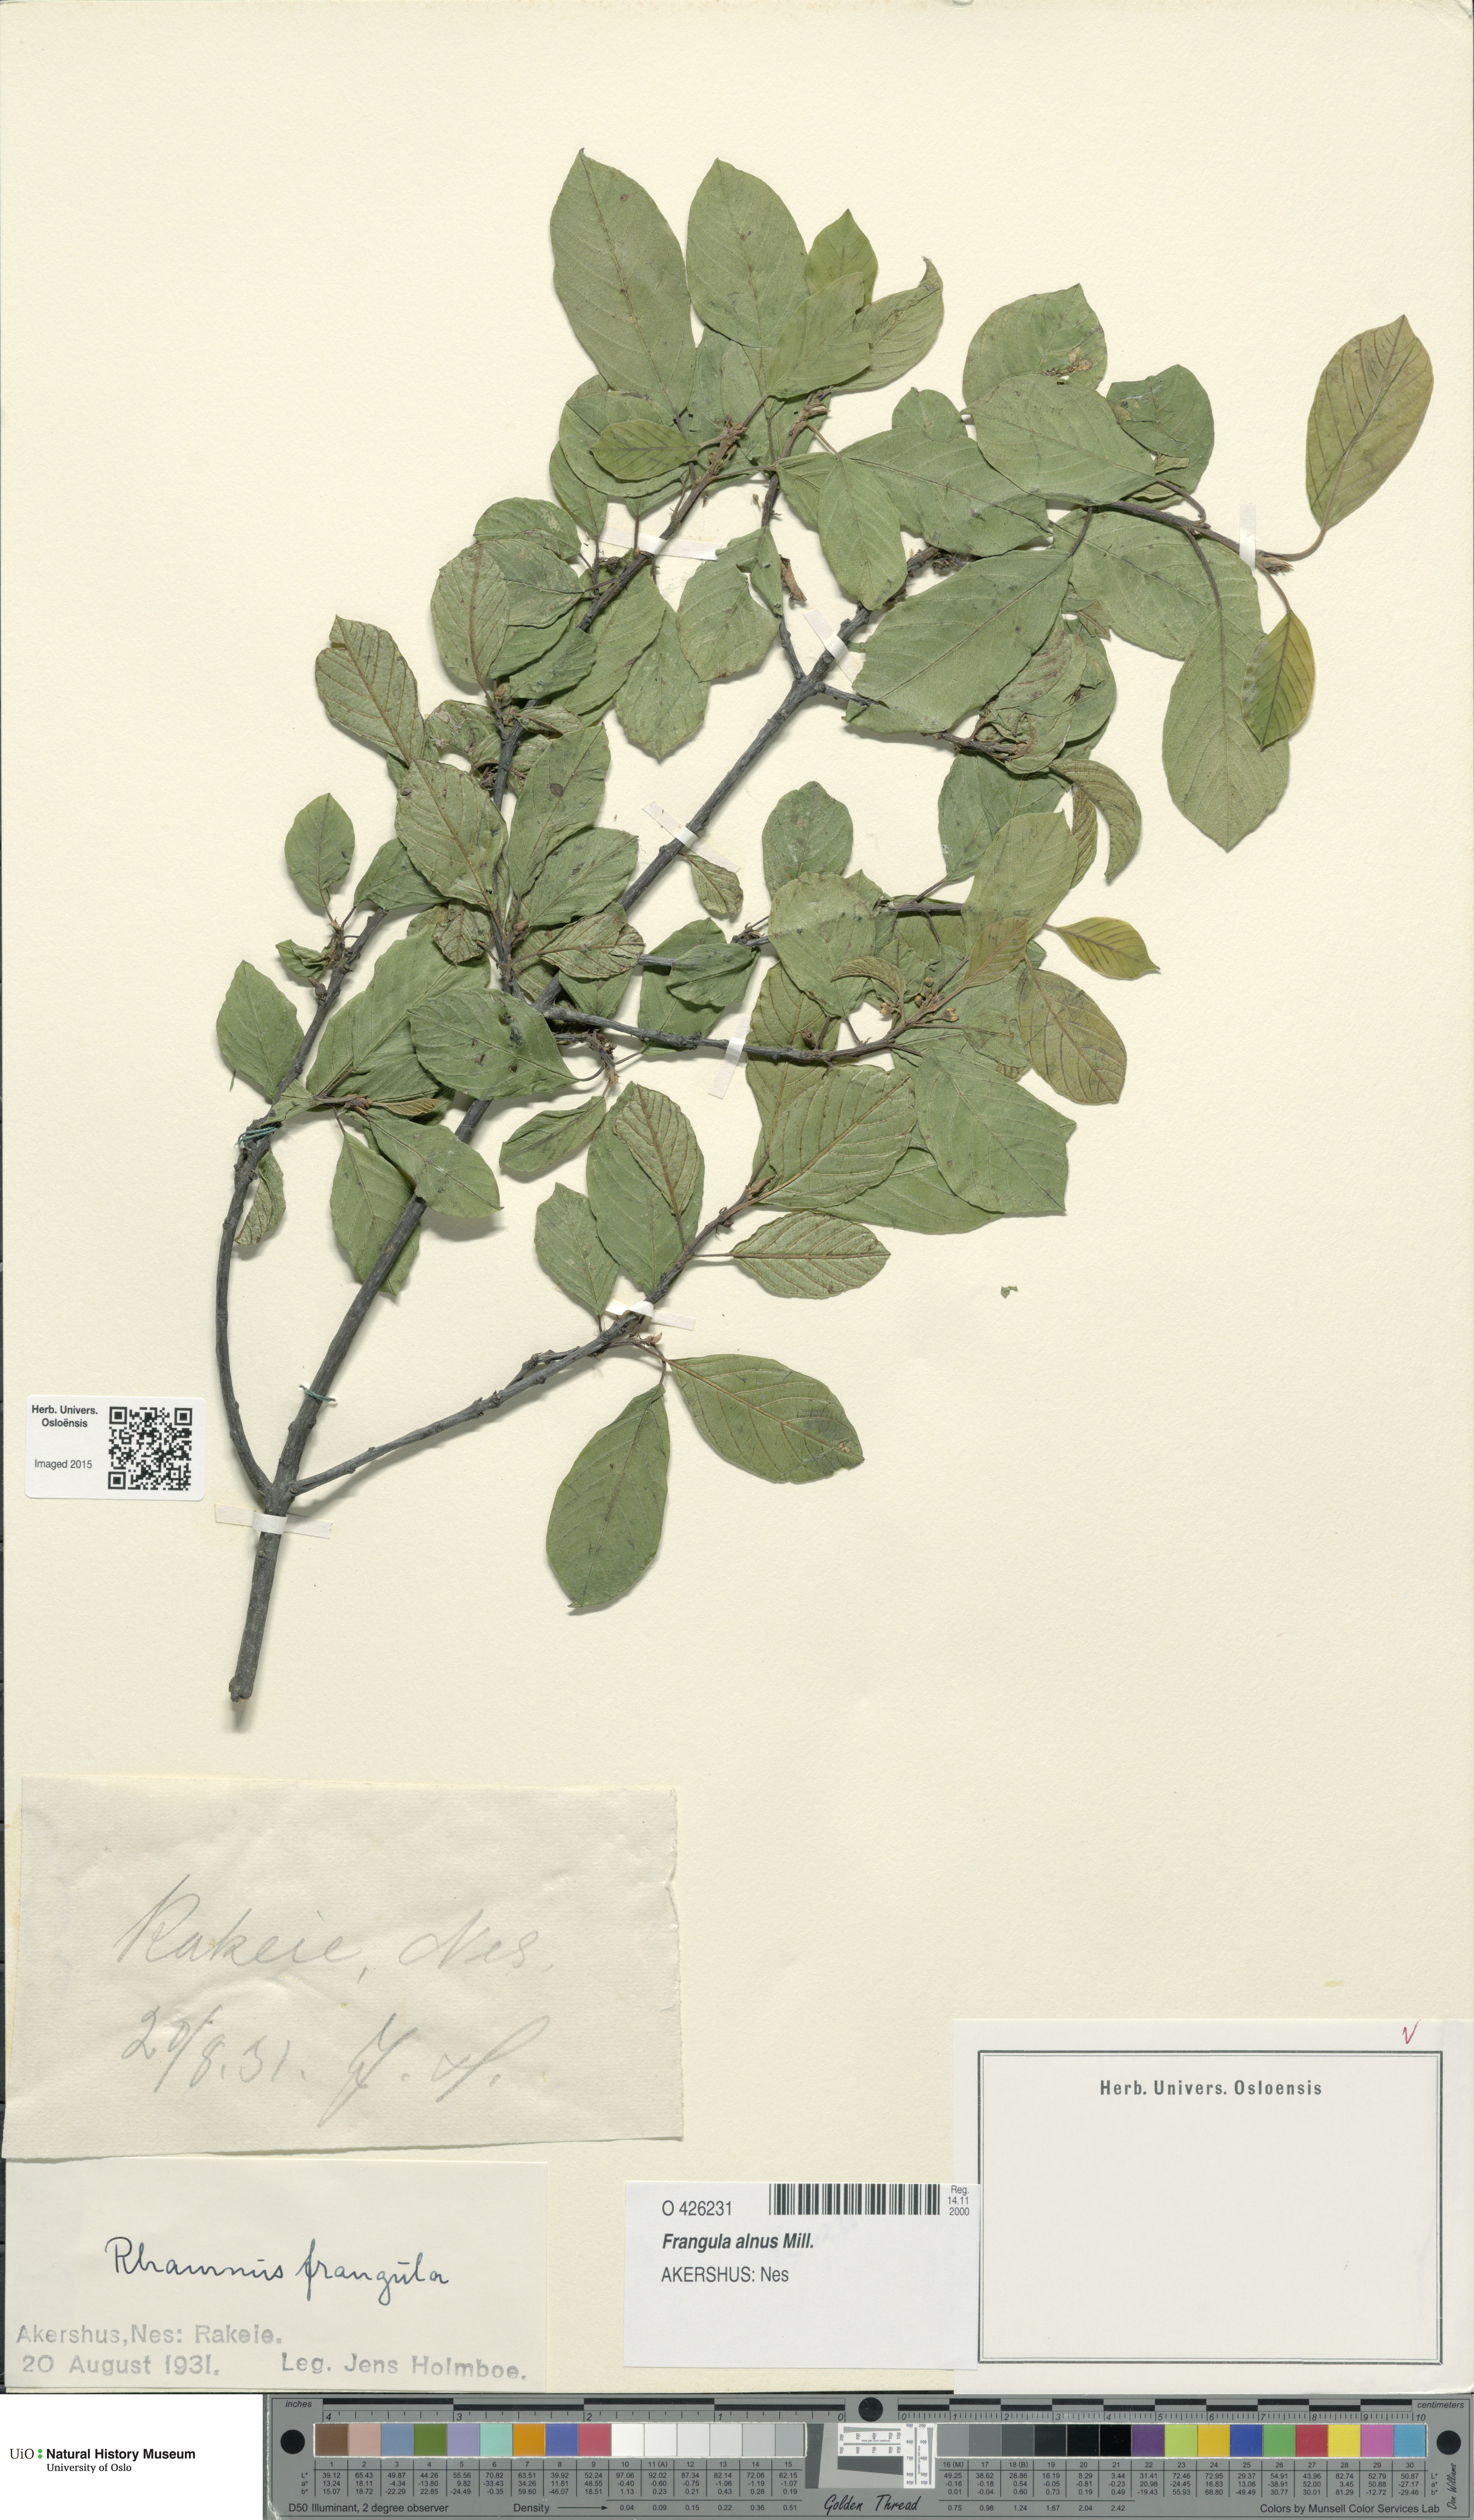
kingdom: Plantae
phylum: Tracheophyta
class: Magnoliopsida
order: Rosales
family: Rhamnaceae
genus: Frangula
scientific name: Frangula alnus
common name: Alder buckthorn
